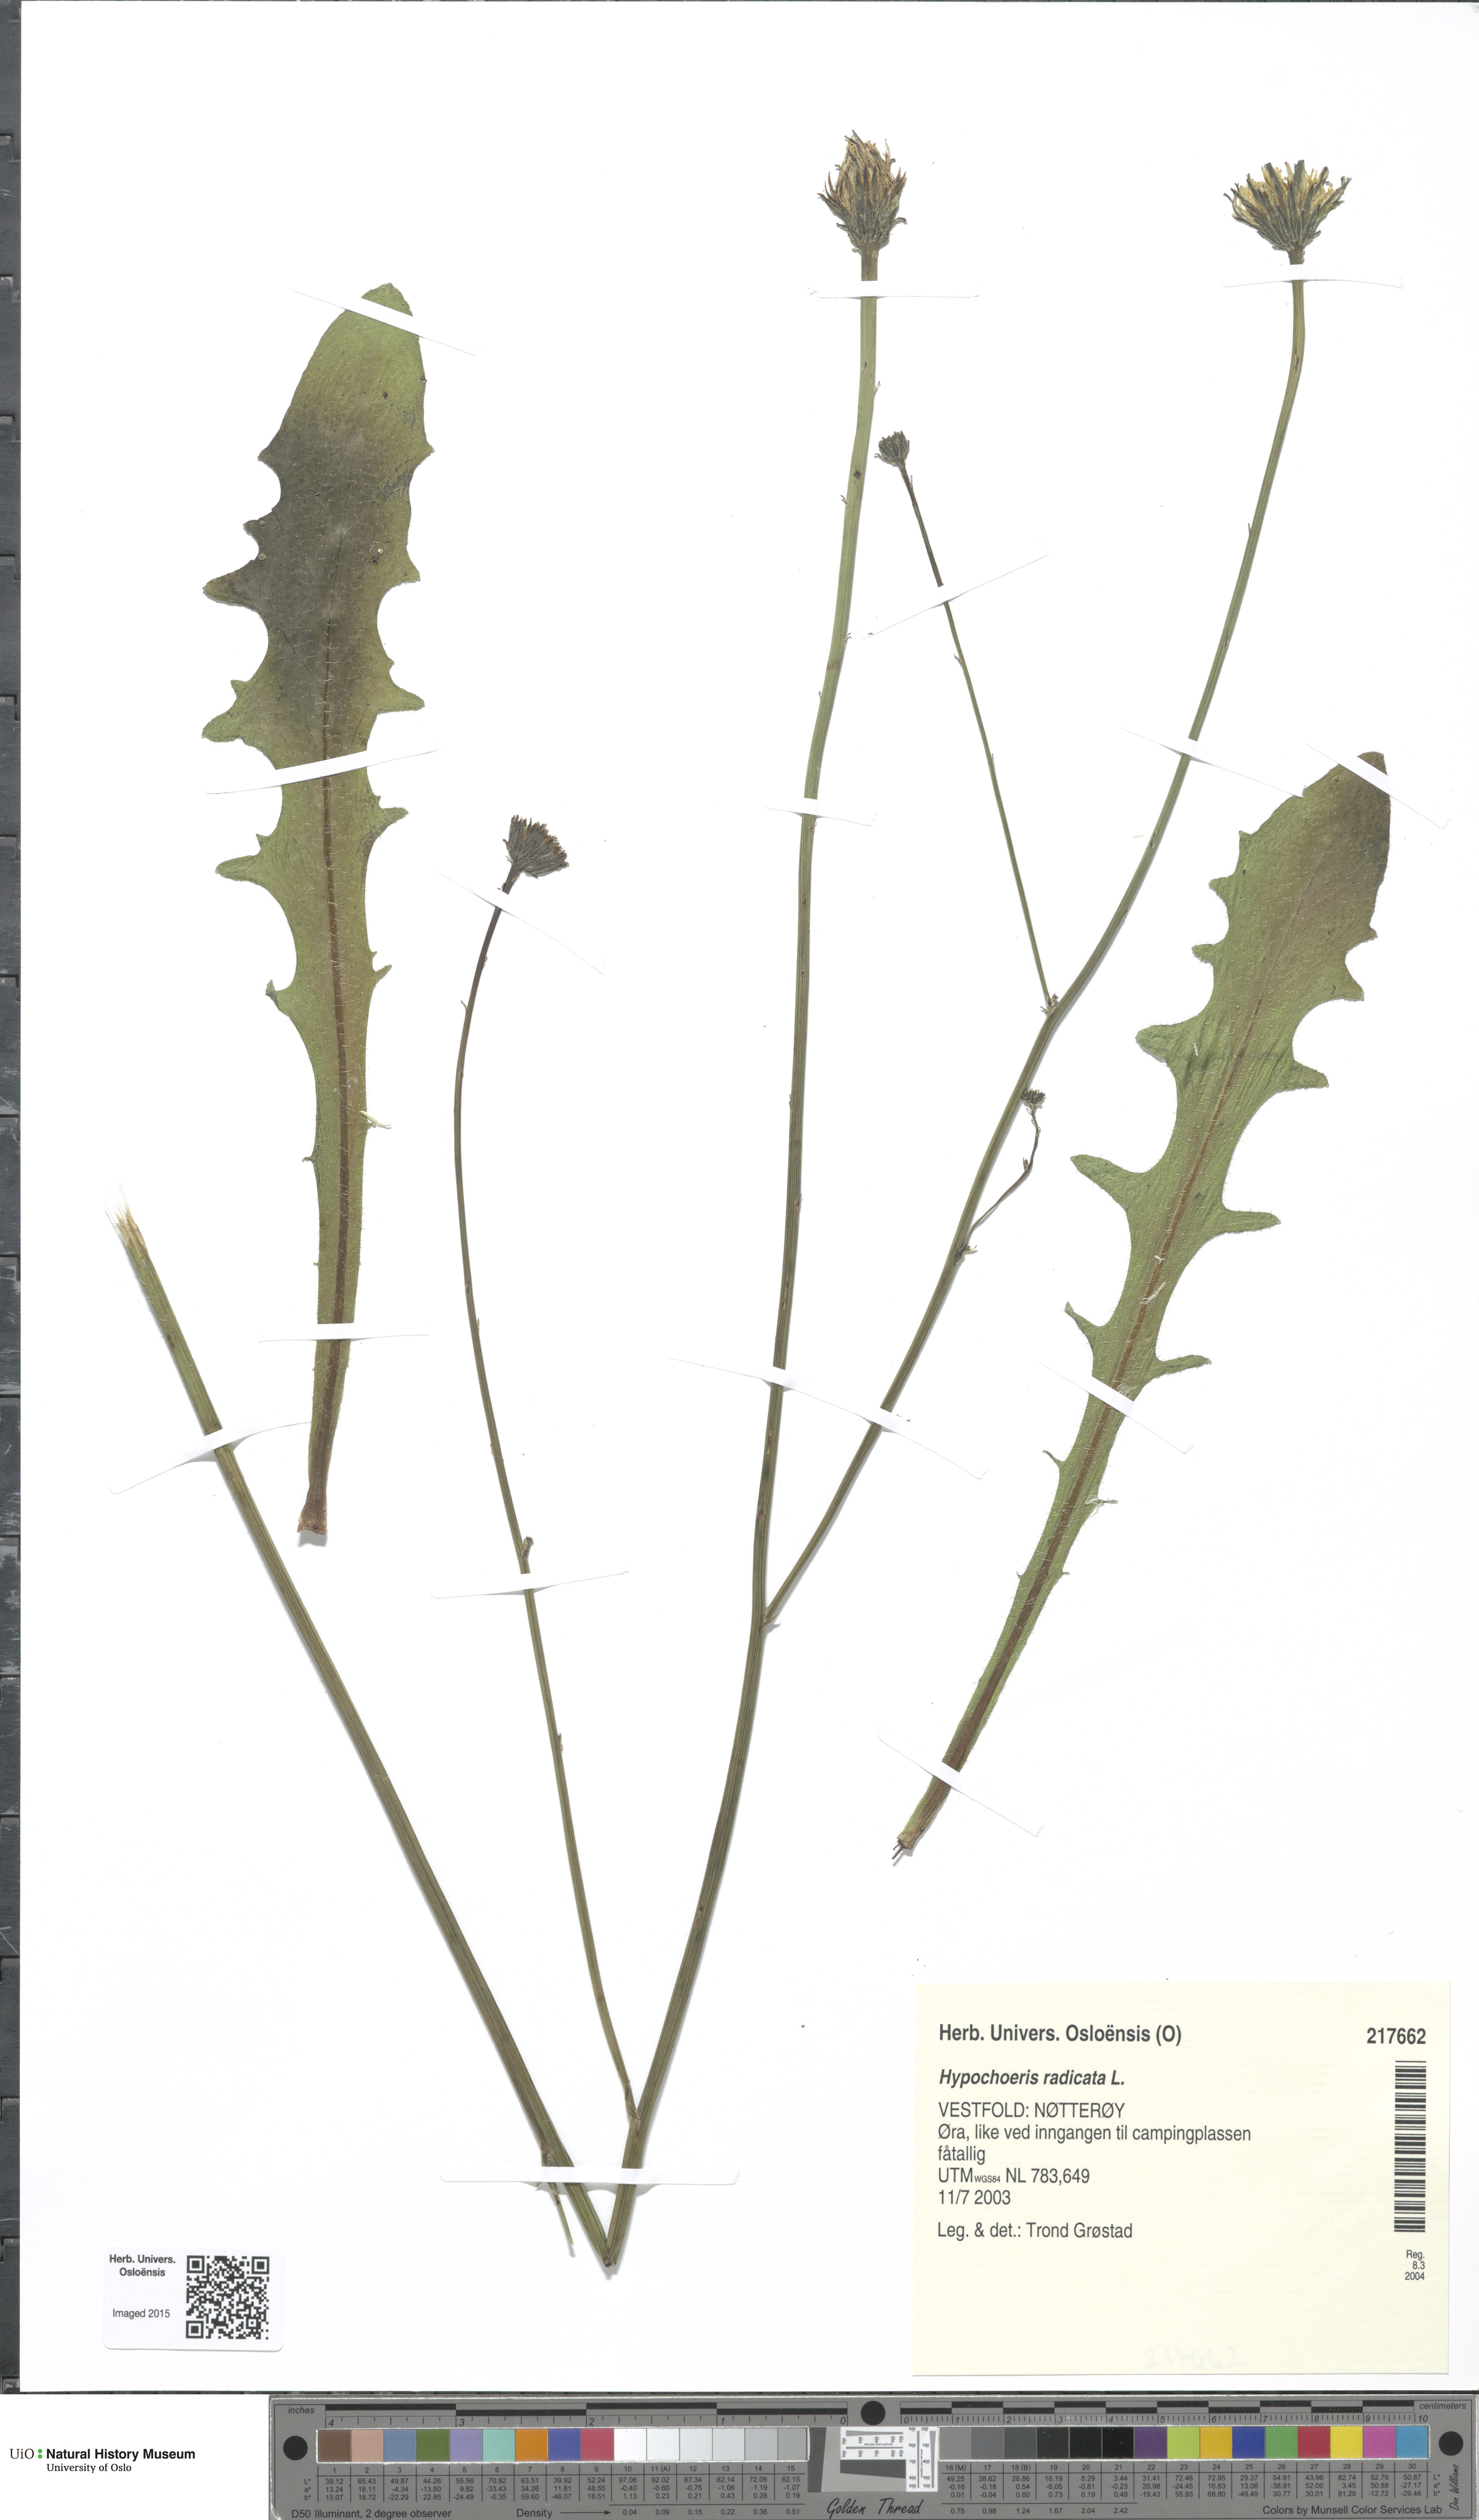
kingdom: Plantae
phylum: Tracheophyta
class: Magnoliopsida
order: Asterales
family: Asteraceae
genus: Hypochaeris
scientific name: Hypochaeris radicata
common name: Flatweed
